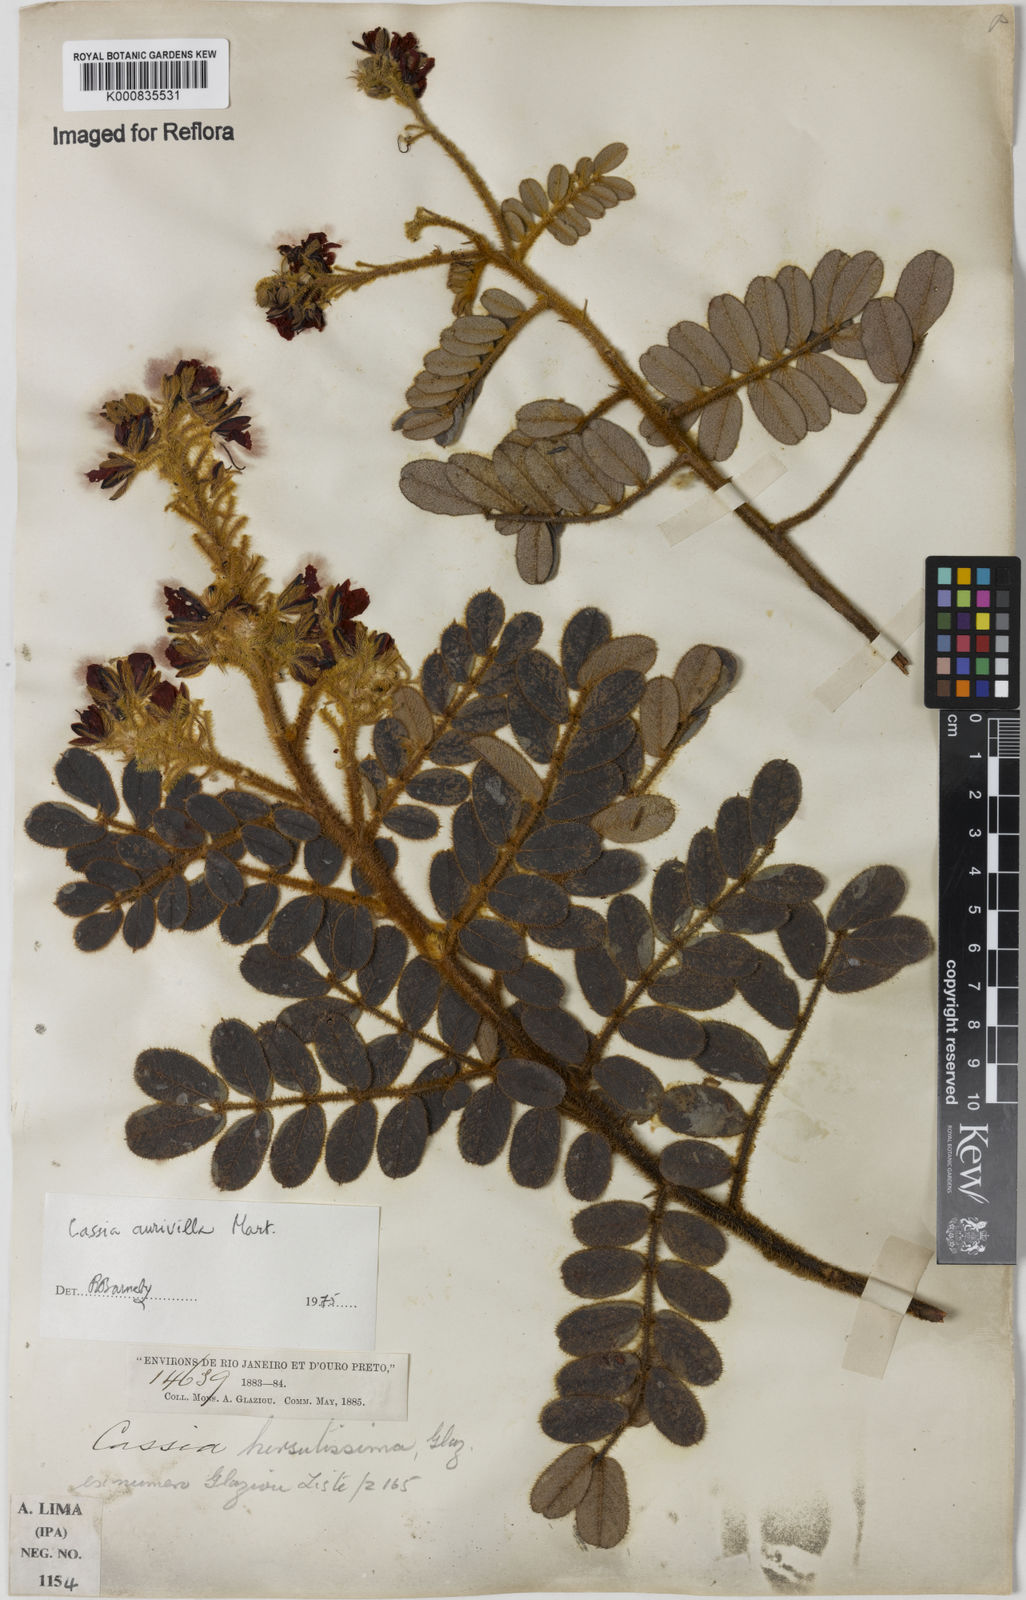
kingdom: Plantae
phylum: Tracheophyta
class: Magnoliopsida
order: Fabales
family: Fabaceae
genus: Chamaecrista
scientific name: Chamaecrista aurivilla
